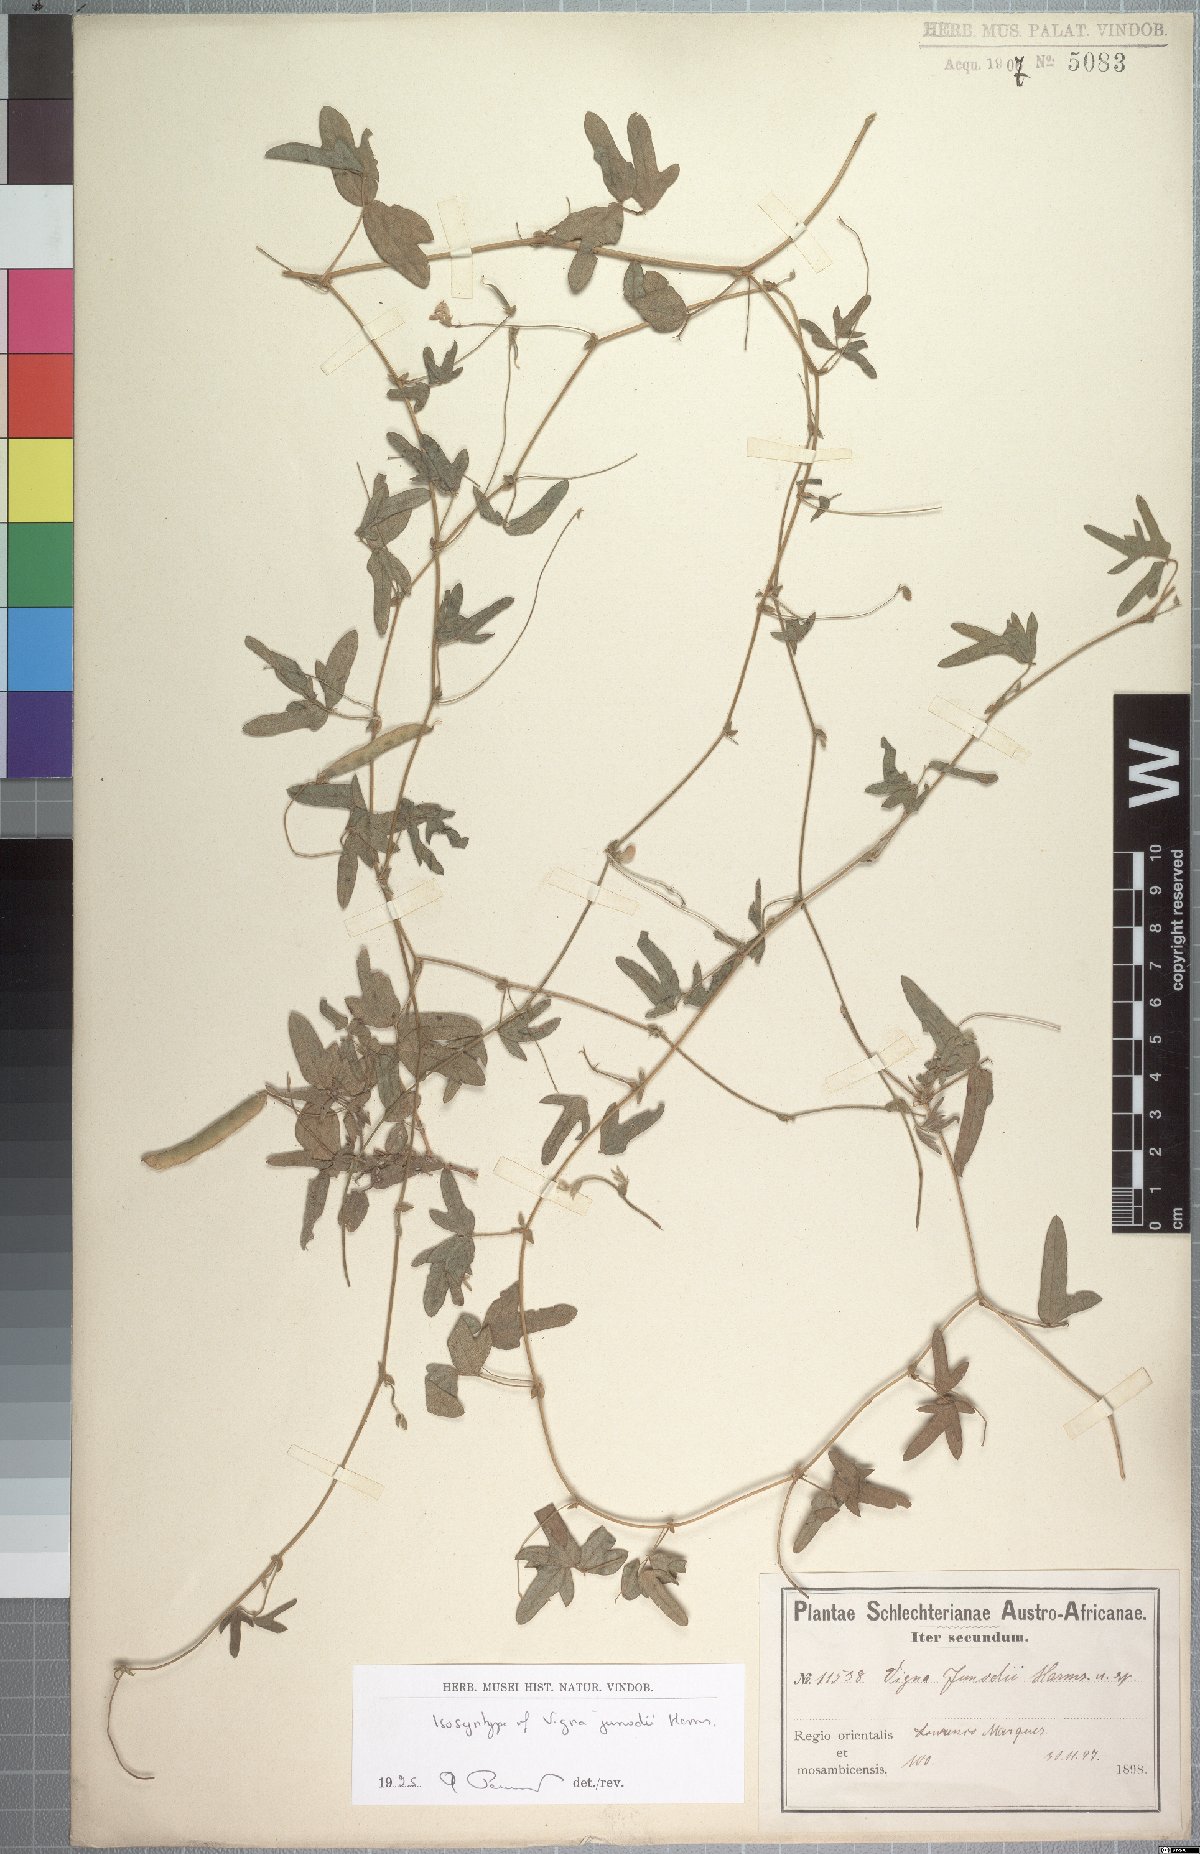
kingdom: Plantae
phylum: Tracheophyta
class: Magnoliopsida
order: Fabales
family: Fabaceae
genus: Dolichos
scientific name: Dolichos junodii
